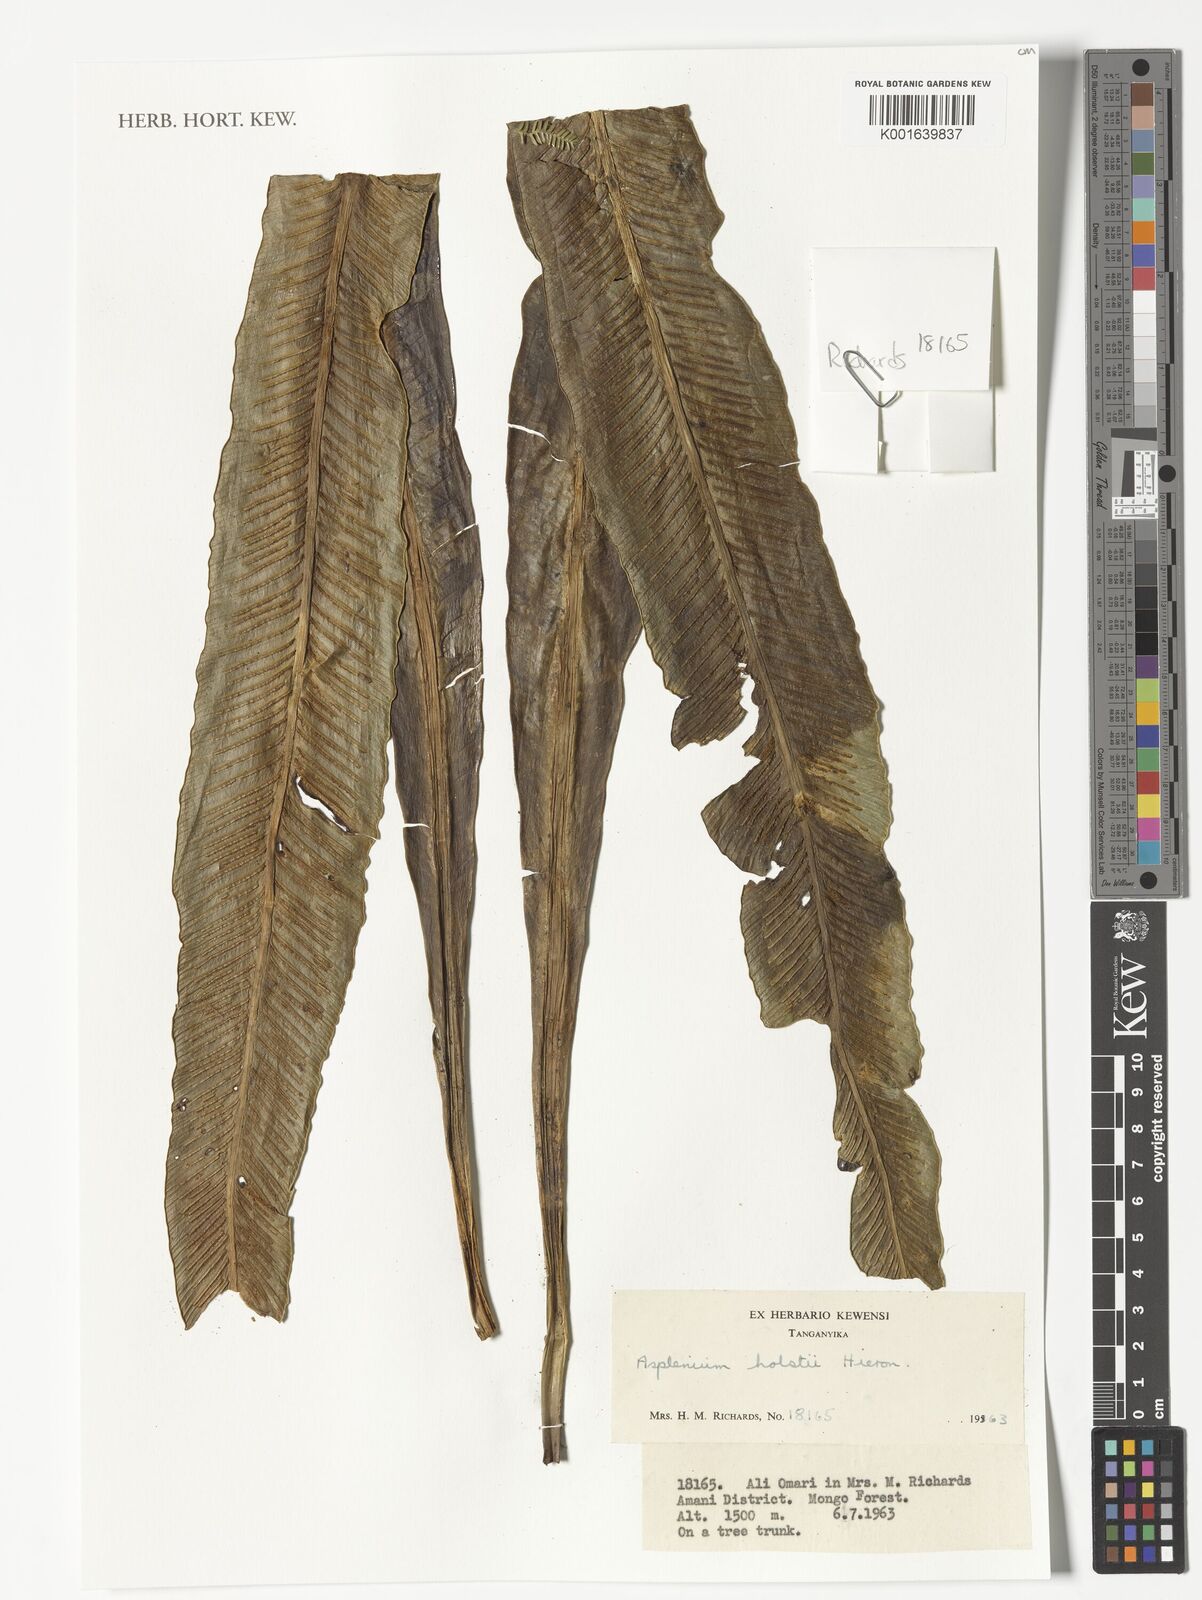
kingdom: Plantae
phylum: Tracheophyta
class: Polypodiopsida
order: Polypodiales
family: Aspleniaceae
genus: Asplenium
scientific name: Asplenium holstii
